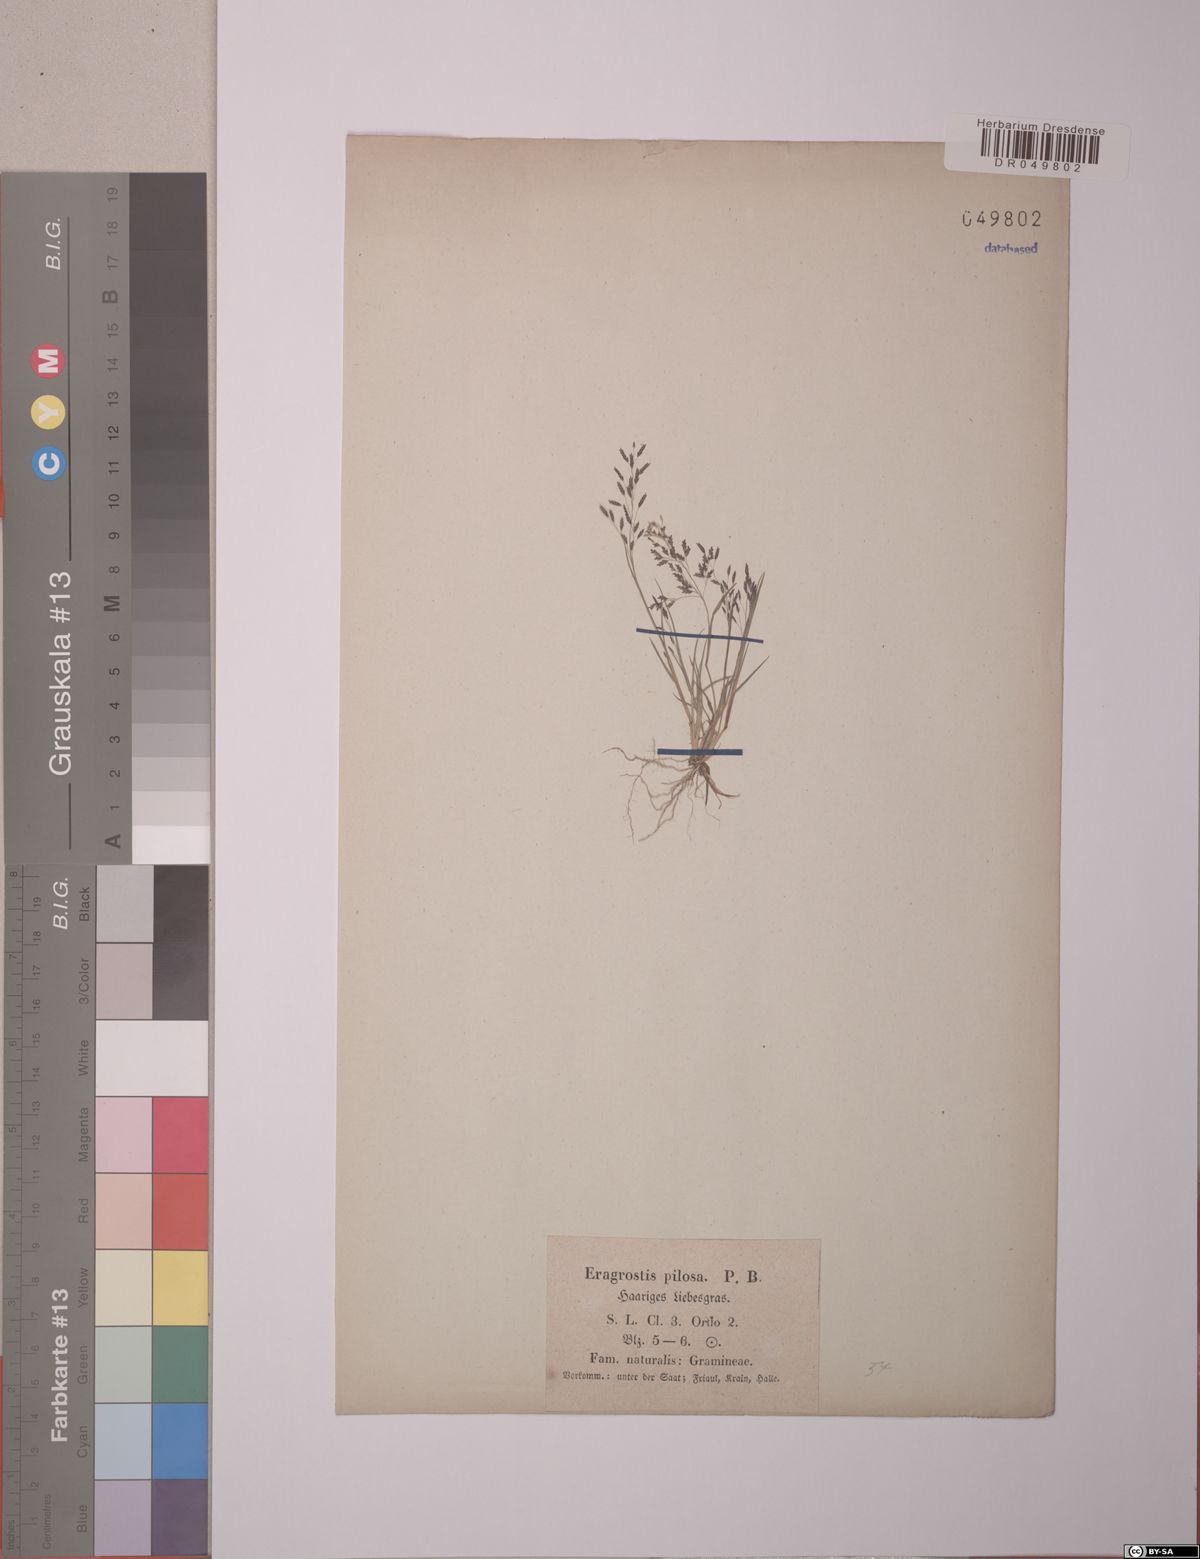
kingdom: Plantae
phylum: Tracheophyta
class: Liliopsida
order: Poales
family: Poaceae
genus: Eragrostis
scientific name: Eragrostis pilosa
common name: Indian lovegrass
